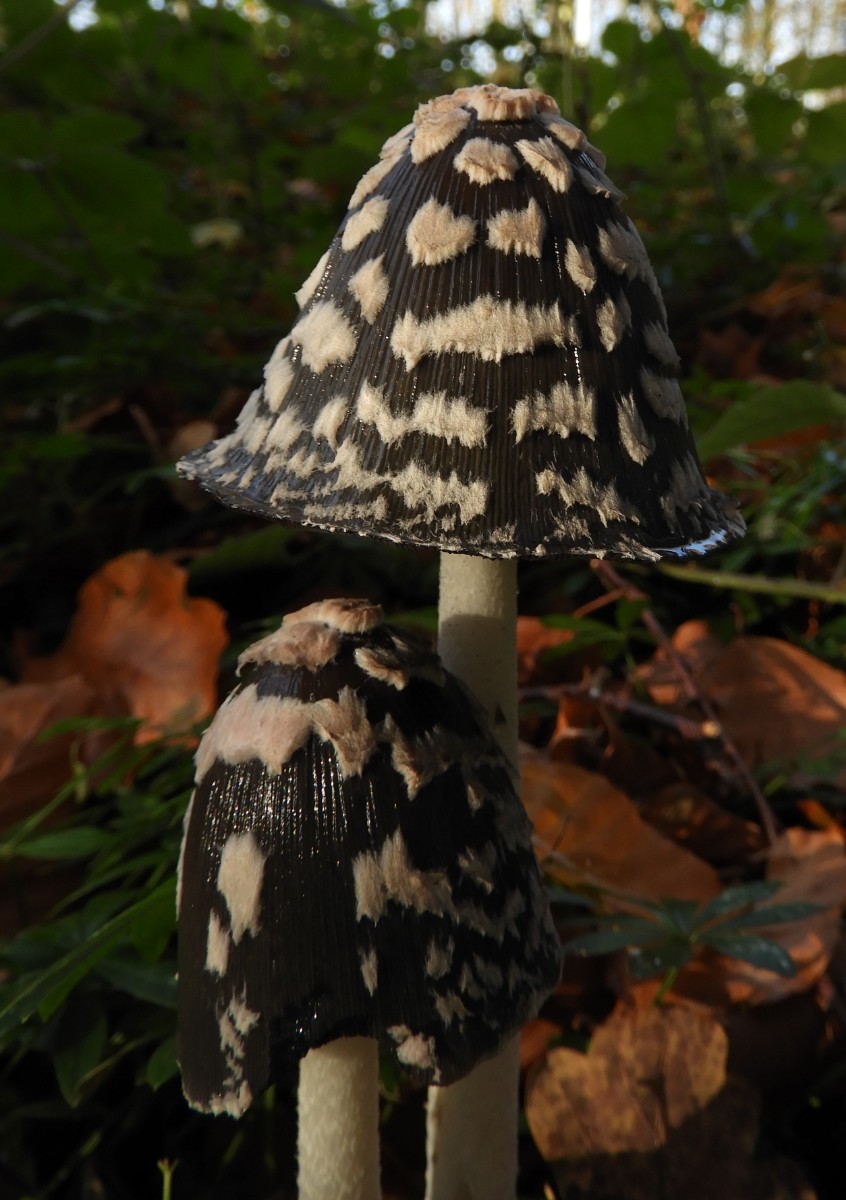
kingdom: Fungi
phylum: Basidiomycota
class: Agaricomycetes
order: Agaricales
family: Psathyrellaceae
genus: Coprinopsis
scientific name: Coprinopsis picacea
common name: skade-blækhat
